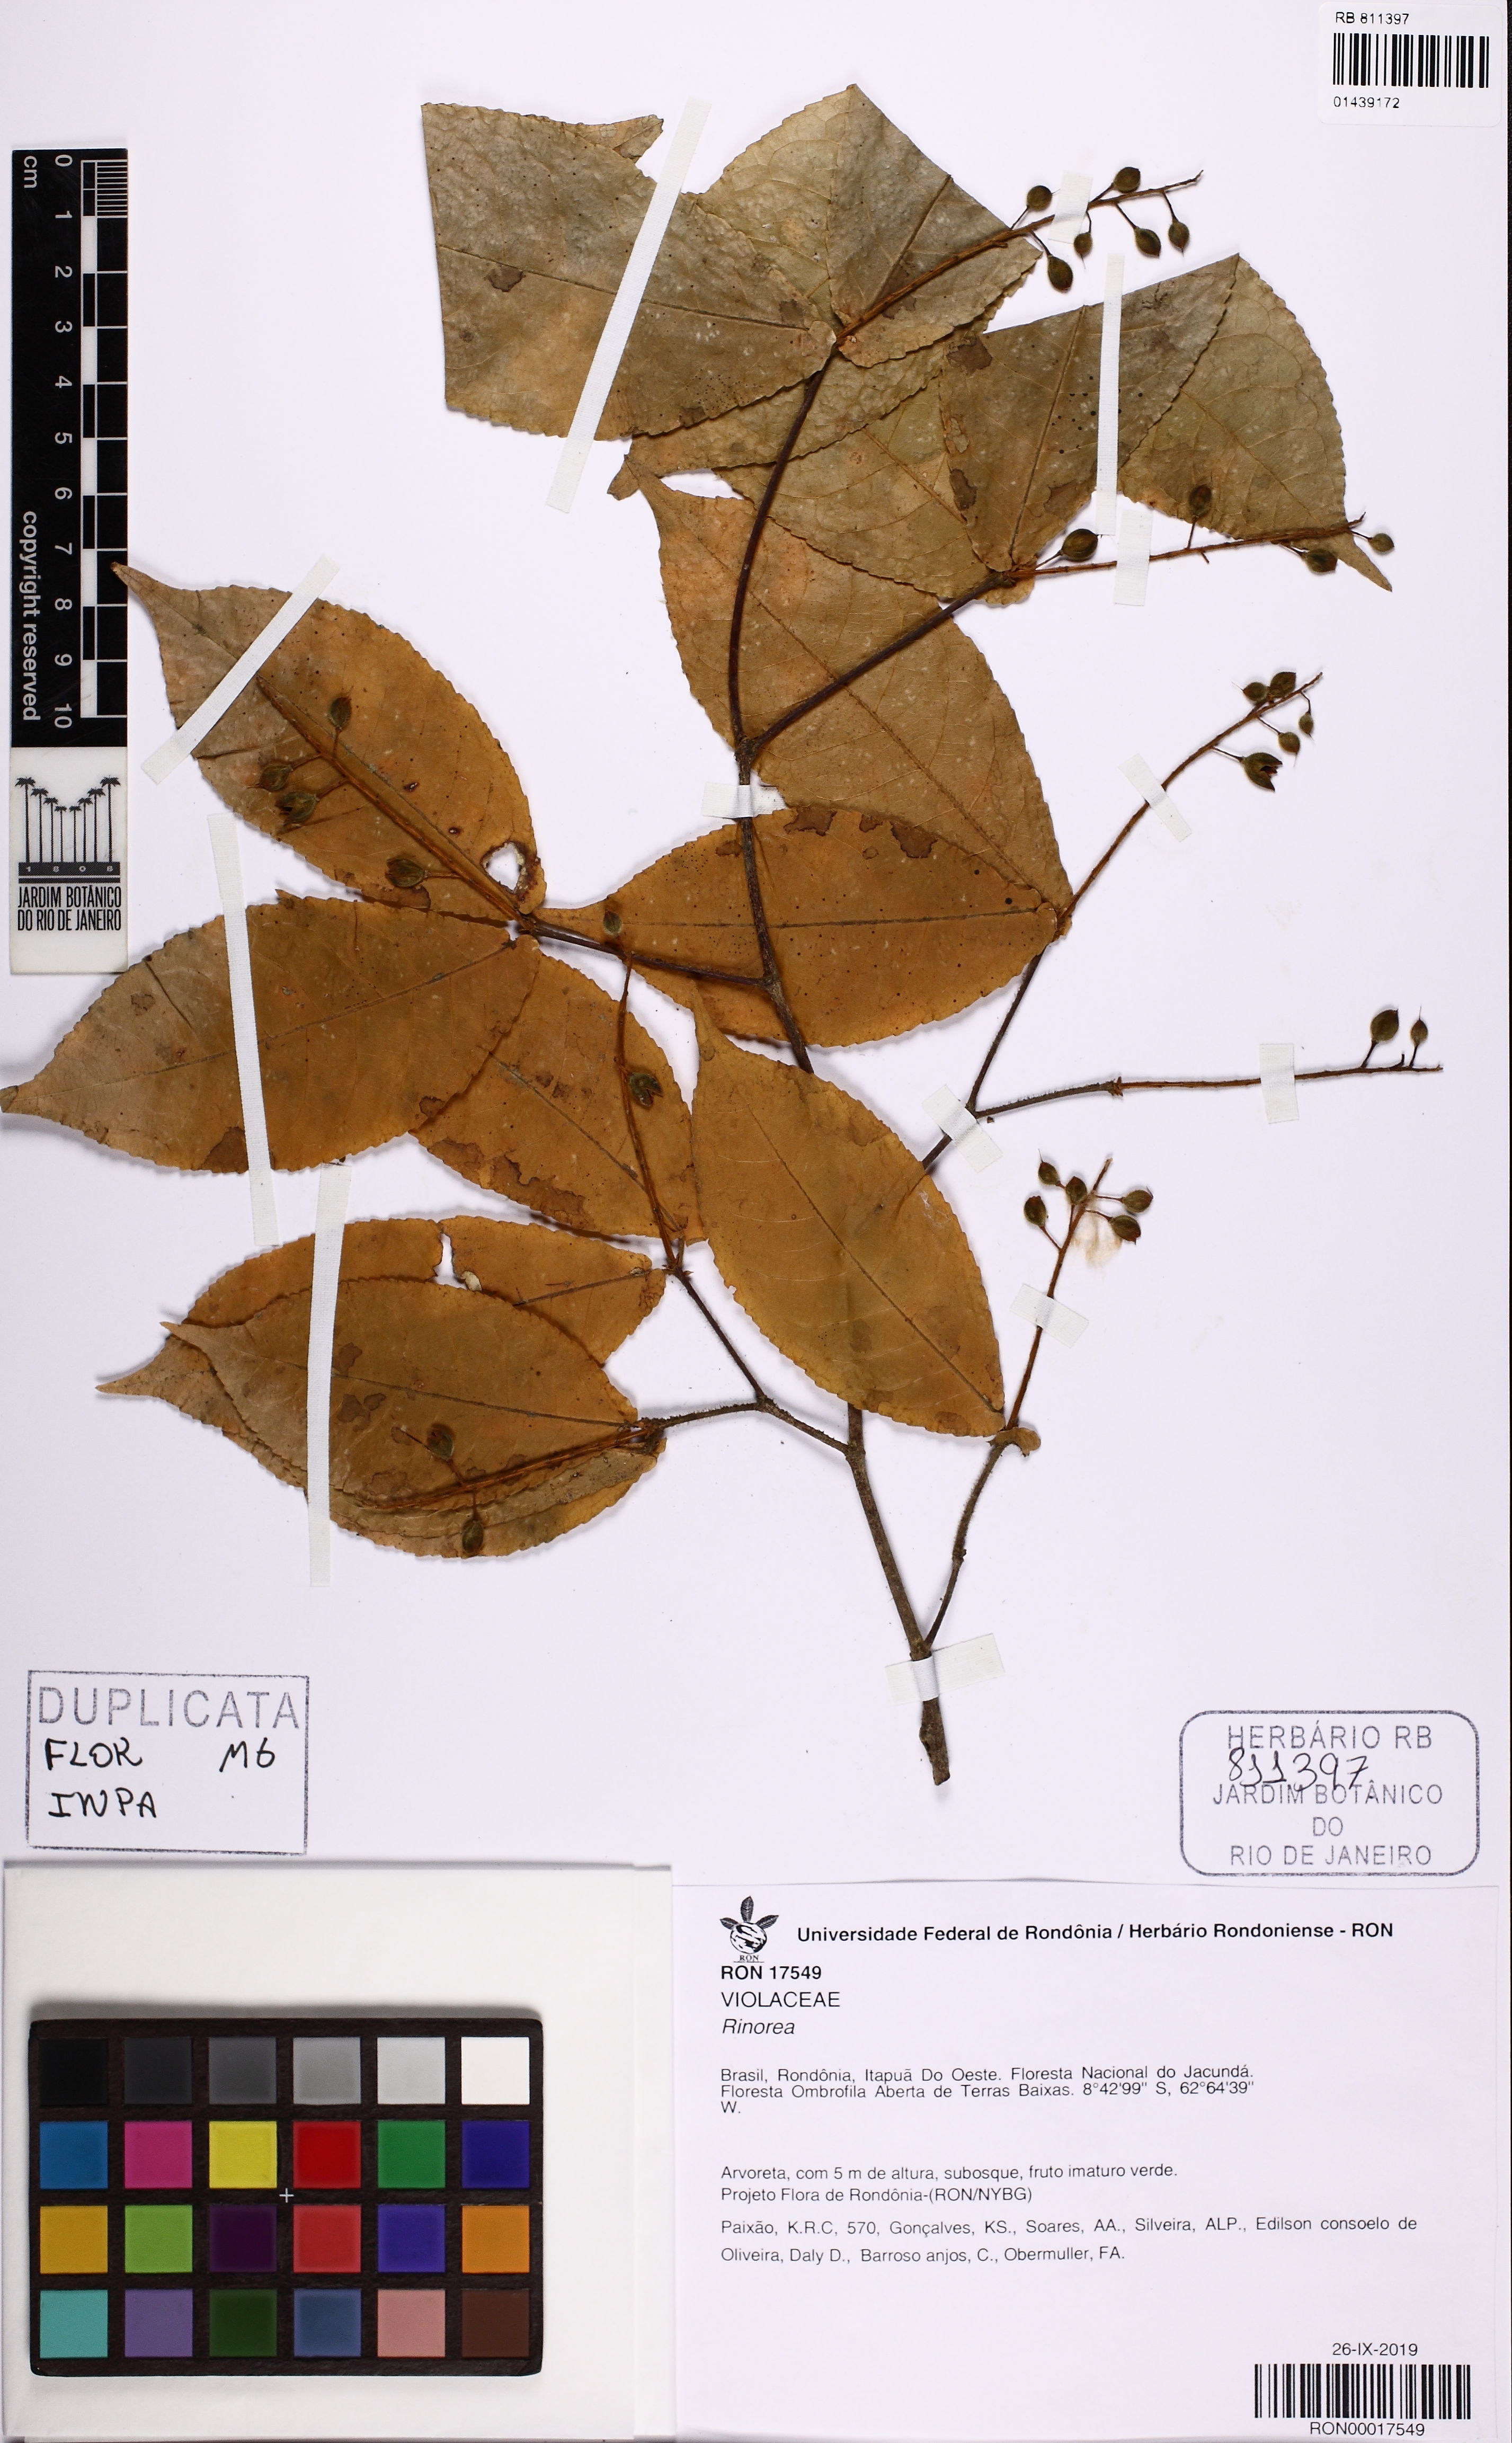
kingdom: Plantae
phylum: Tracheophyta
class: Magnoliopsida
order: Malpighiales
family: Violaceae
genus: Rinorea
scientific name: Rinorea neglecta
